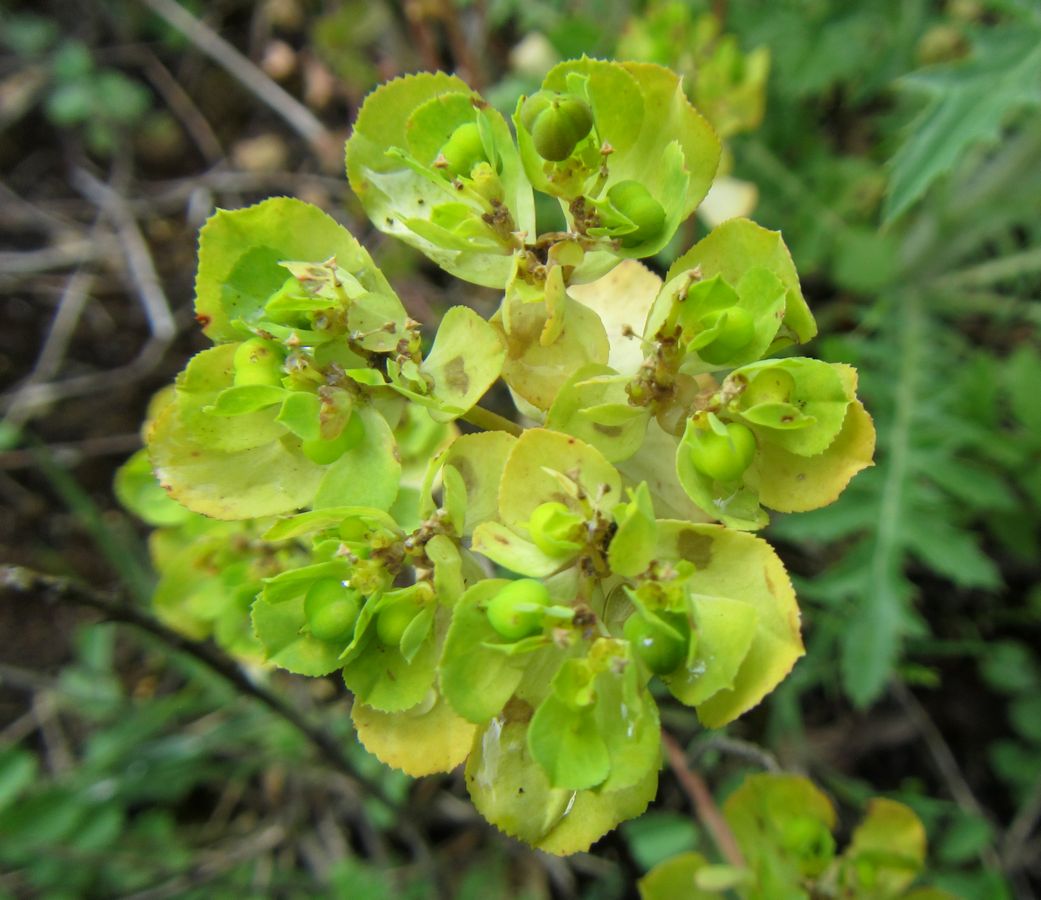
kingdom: Plantae
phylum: Tracheophyta
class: Magnoliopsida
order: Malpighiales
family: Euphorbiaceae
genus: Euphorbia
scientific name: Euphorbia
